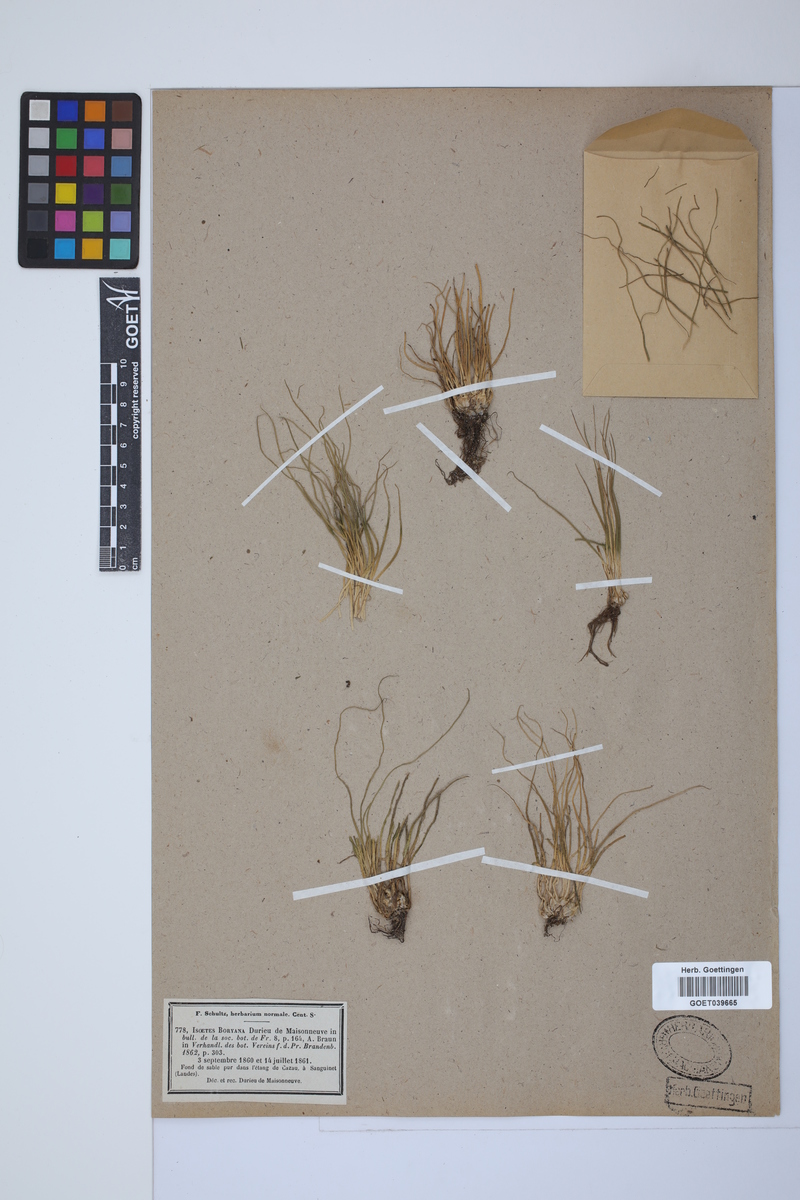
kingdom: Plantae
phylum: Tracheophyta
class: Lycopodiopsida
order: Isoetales
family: Isoetaceae
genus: Isoetes
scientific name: Isoetes boryana
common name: Gascoyne quillwort
